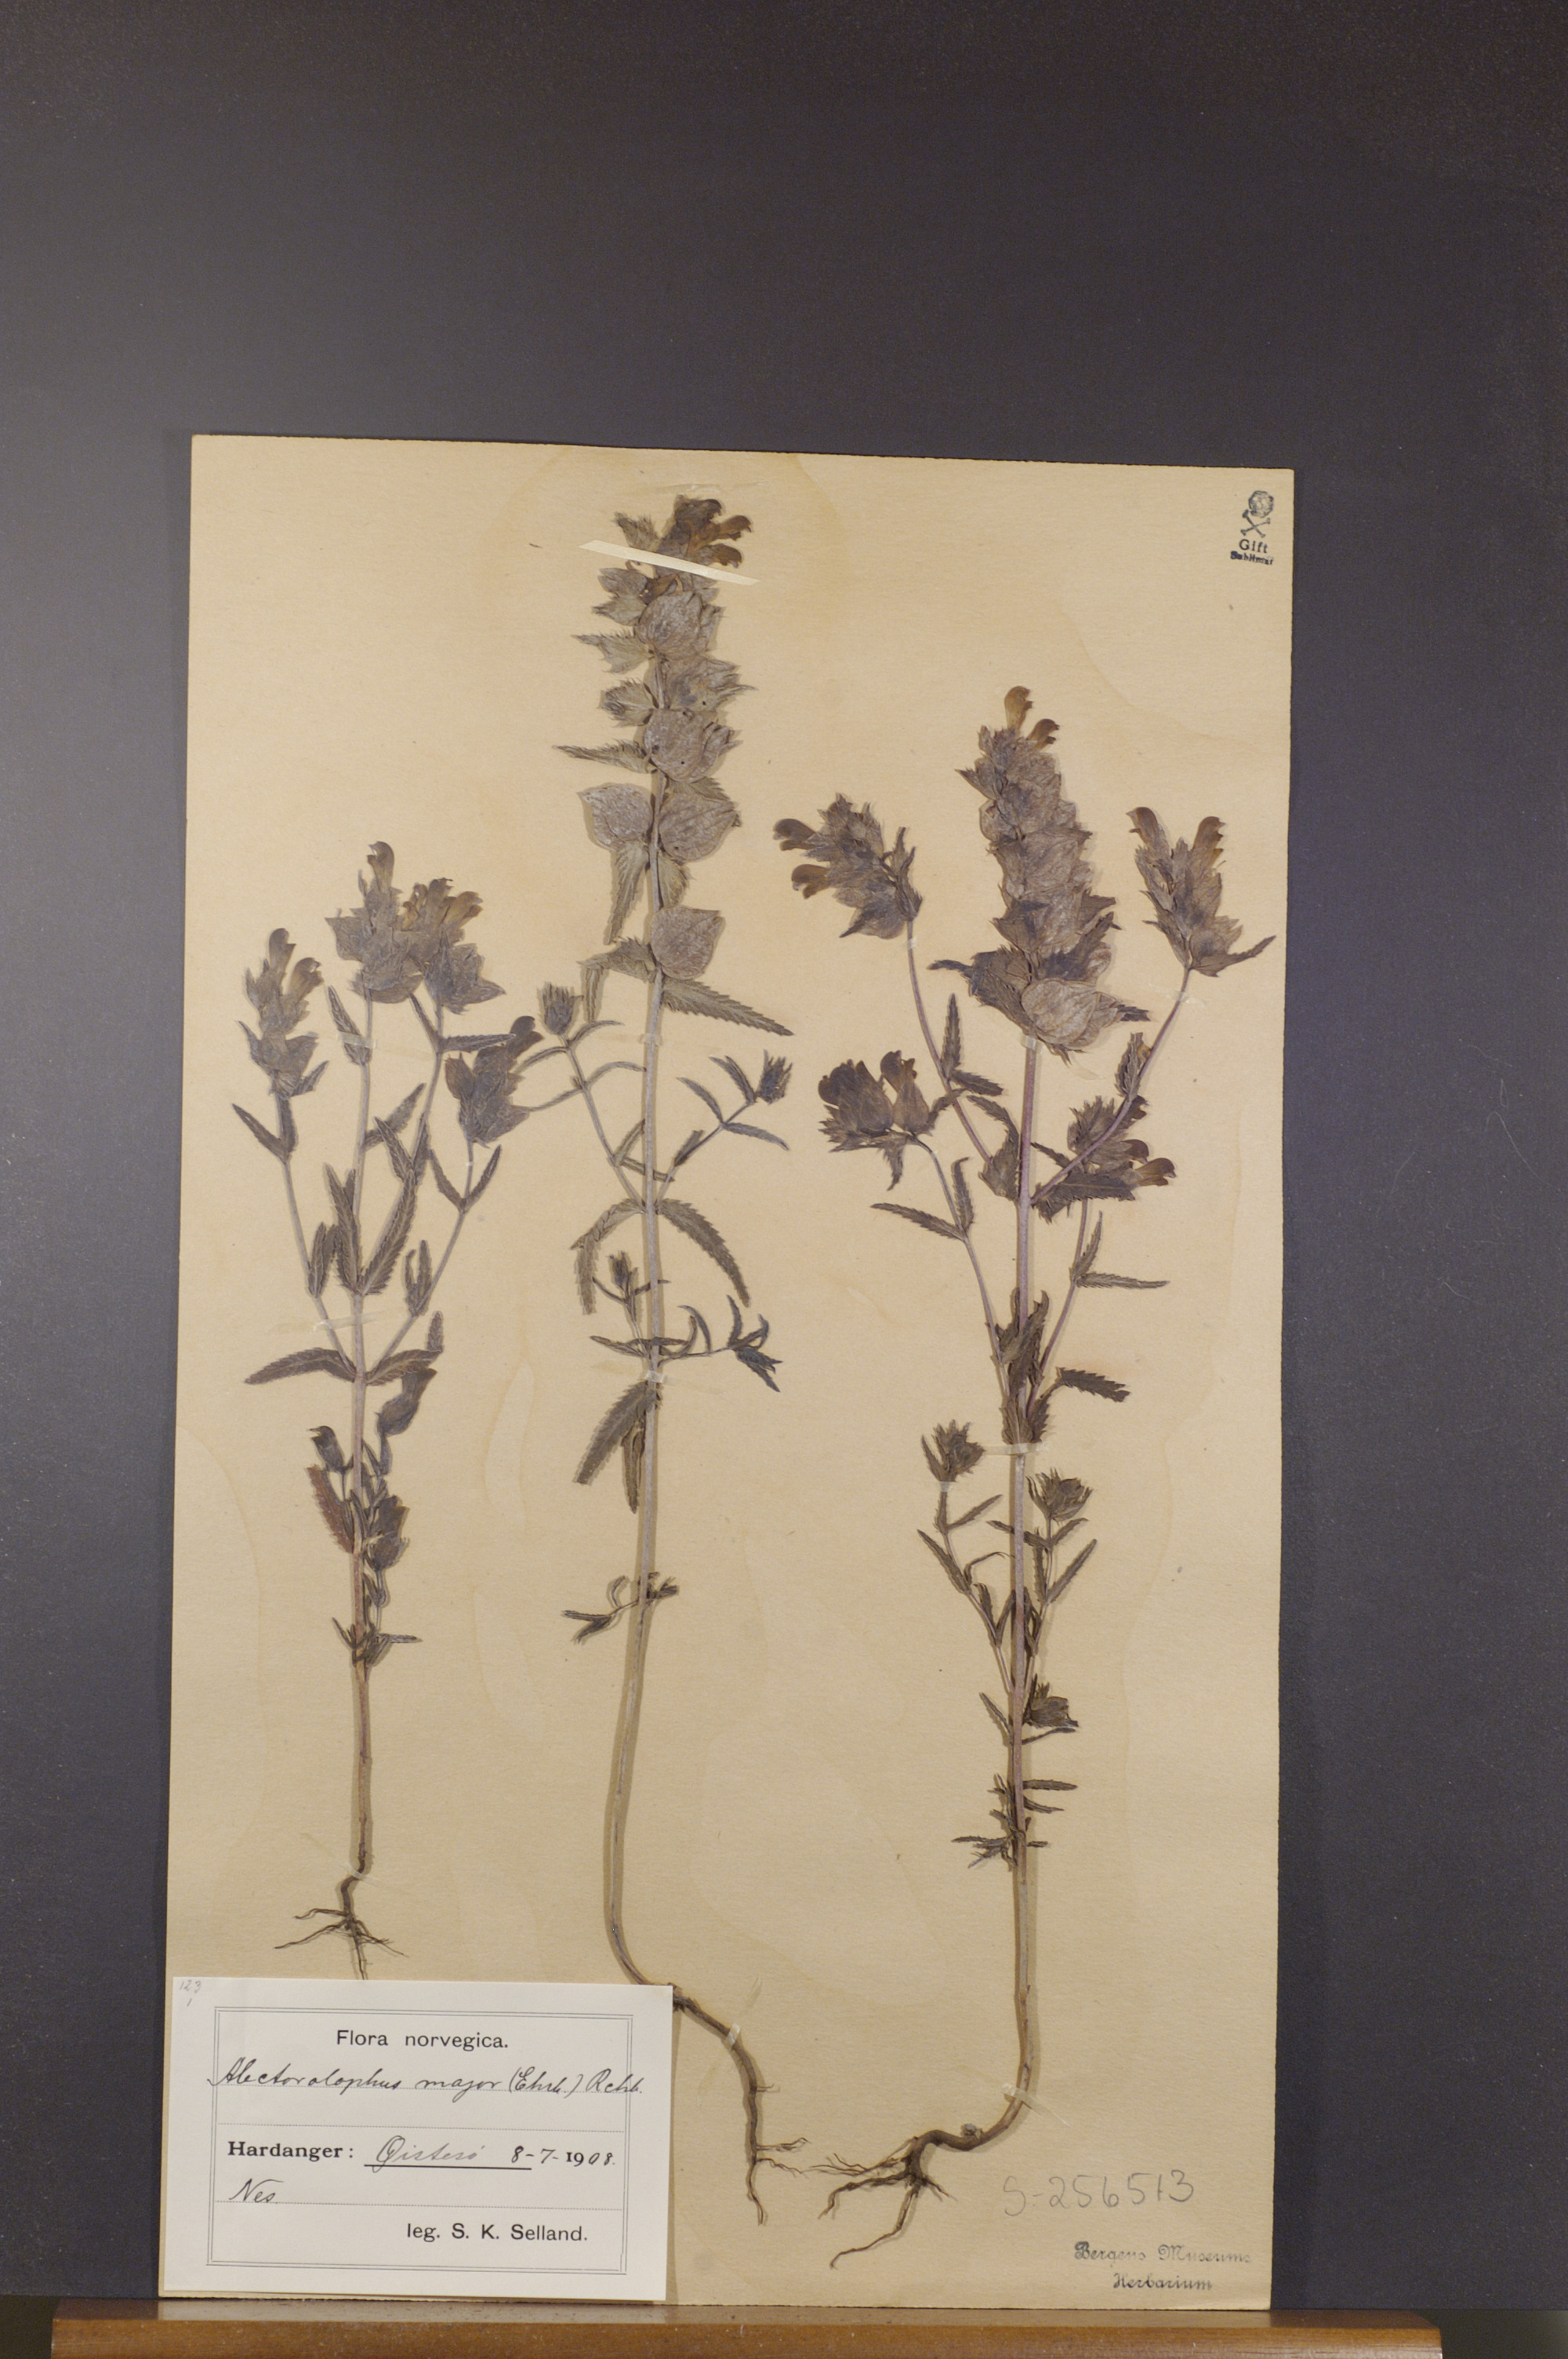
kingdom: Plantae
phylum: Tracheophyta
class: Magnoliopsida
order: Lamiales
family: Orobanchaceae
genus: Rhinanthus
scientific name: Rhinanthus serotinus
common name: Late-flowering yellow rattle
